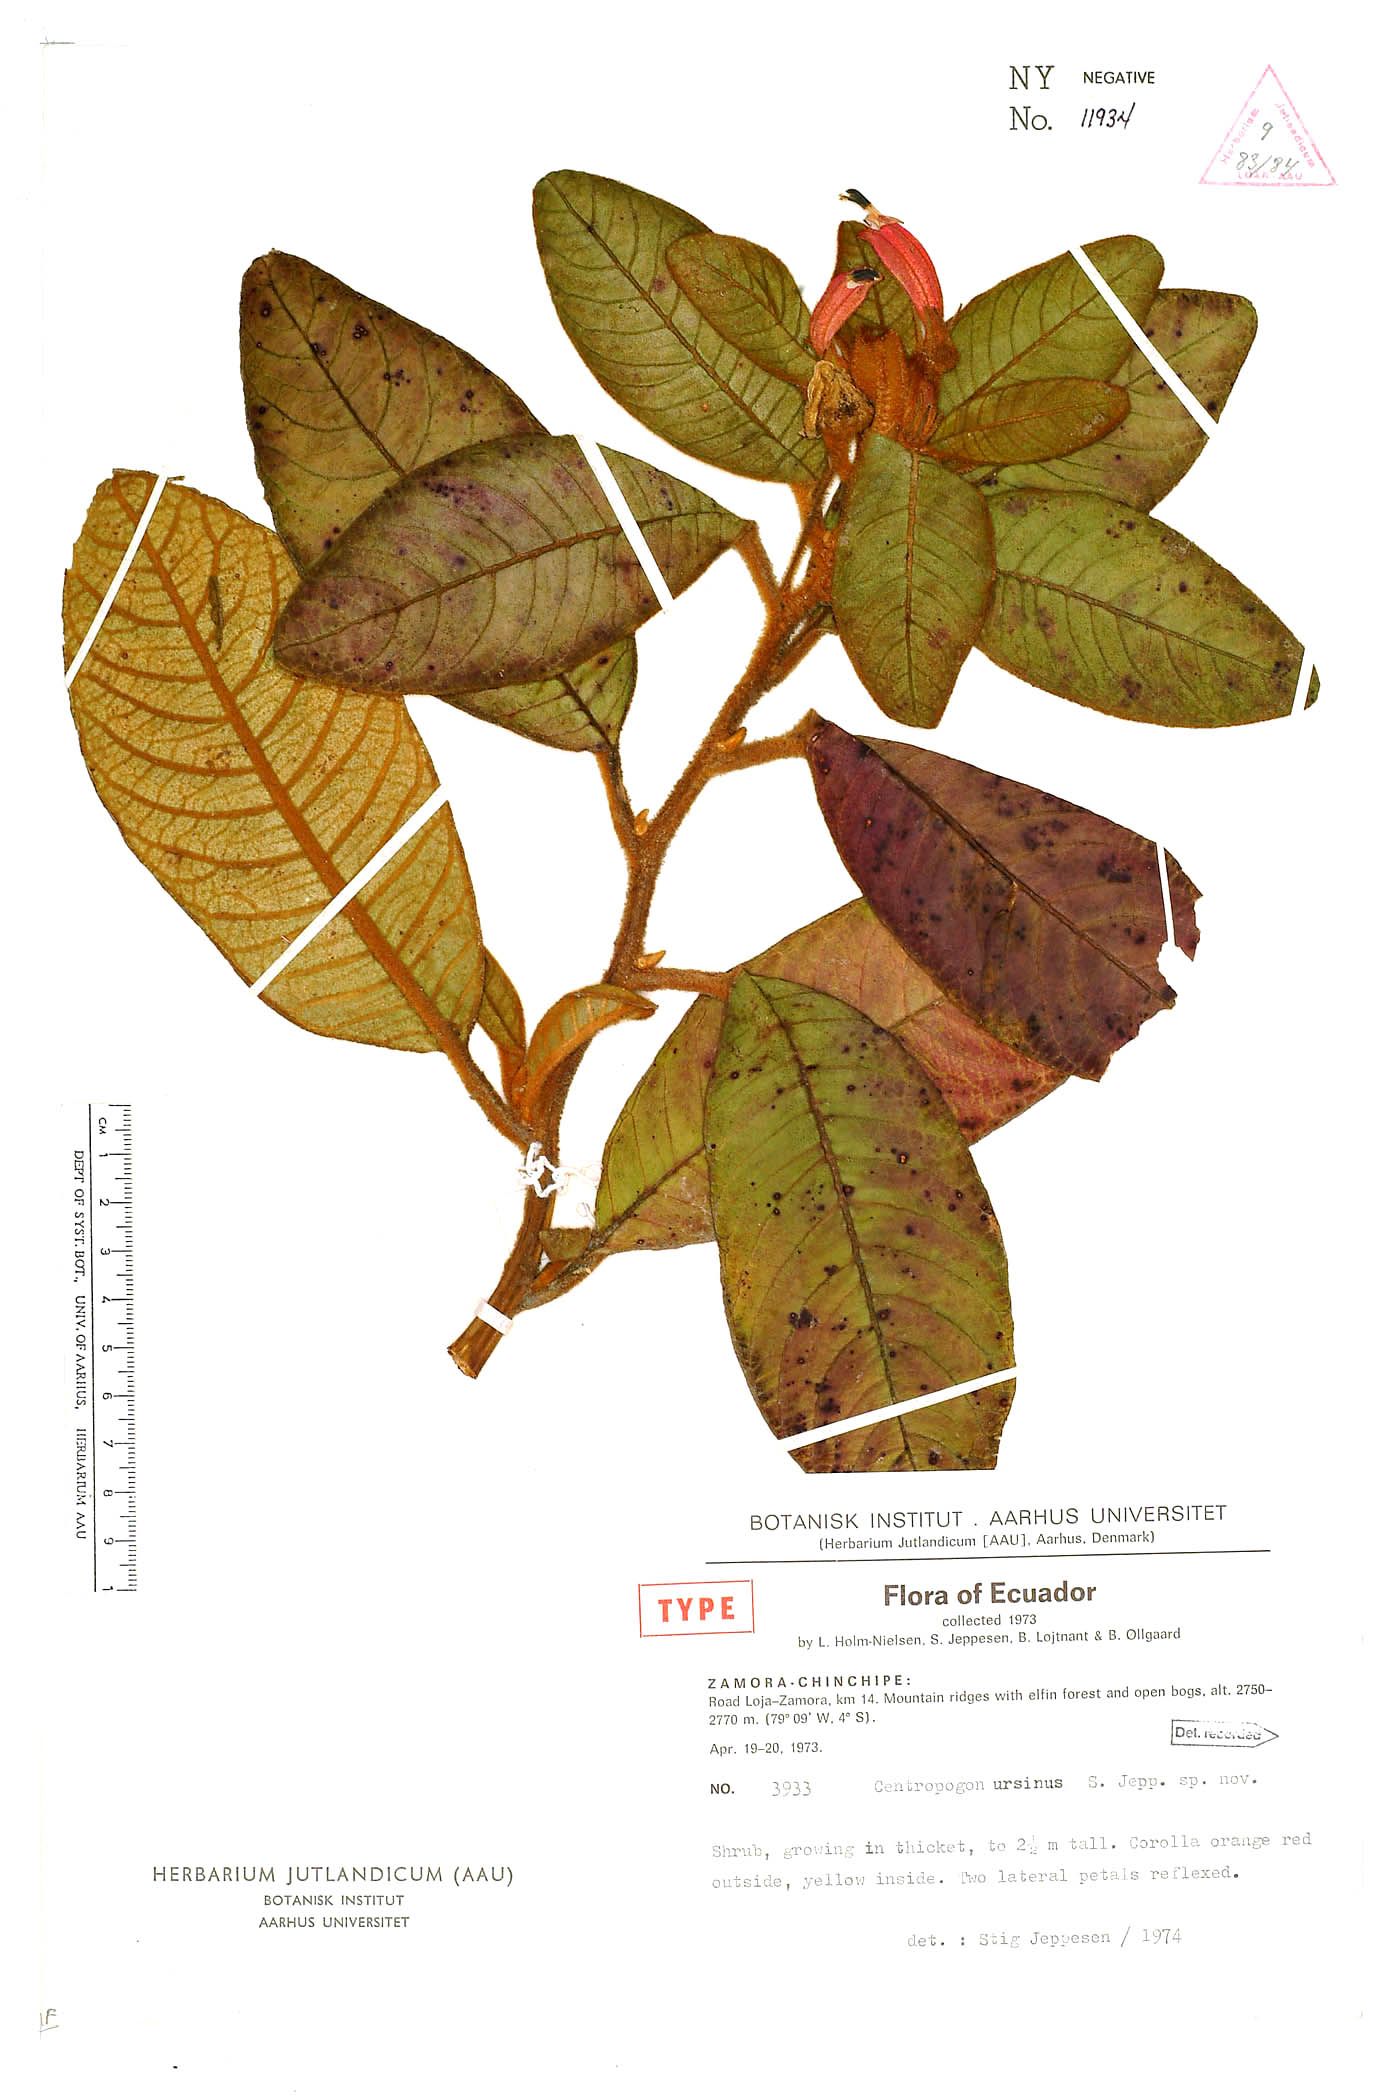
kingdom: Plantae
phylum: Tracheophyta
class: Magnoliopsida
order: Asterales
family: Campanulaceae
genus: Centropogon
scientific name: Centropogon ursinus
